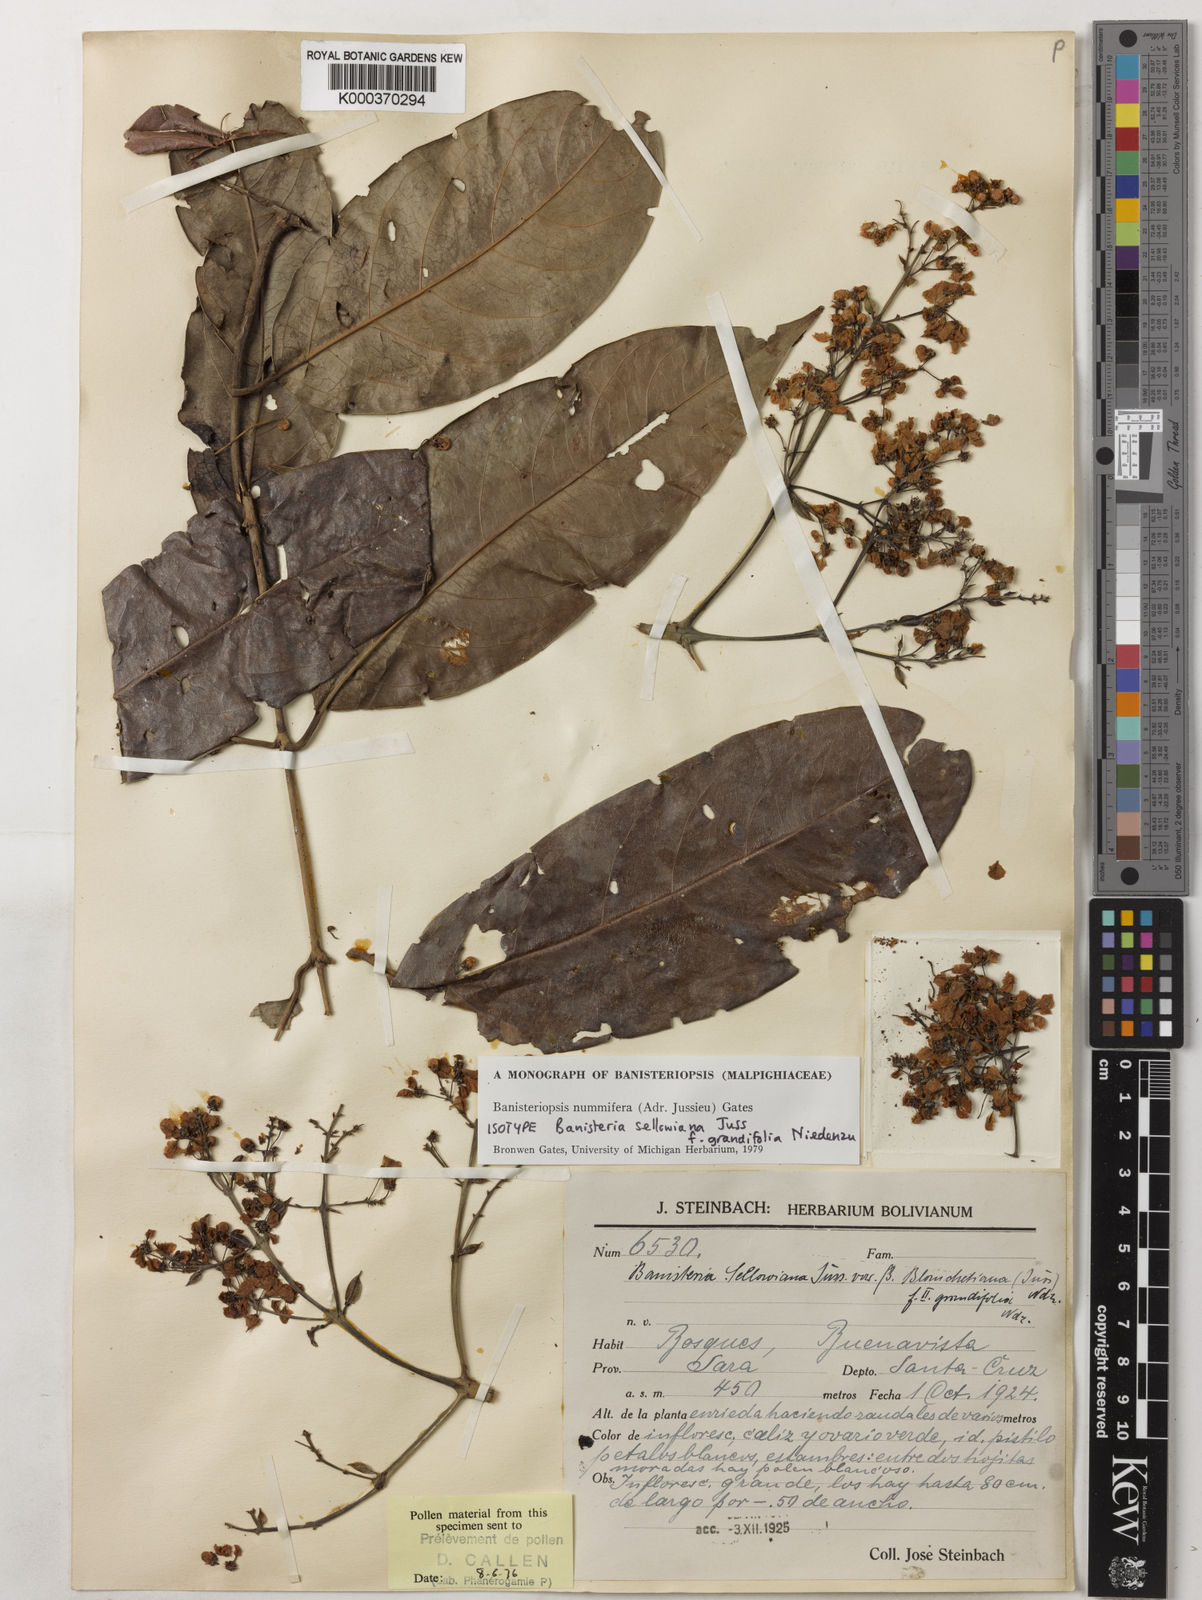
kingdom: Plantae
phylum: Tracheophyta
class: Magnoliopsida
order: Malpighiales
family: Malpighiaceae
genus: Banisteriopsis
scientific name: Banisteriopsis nummifera
